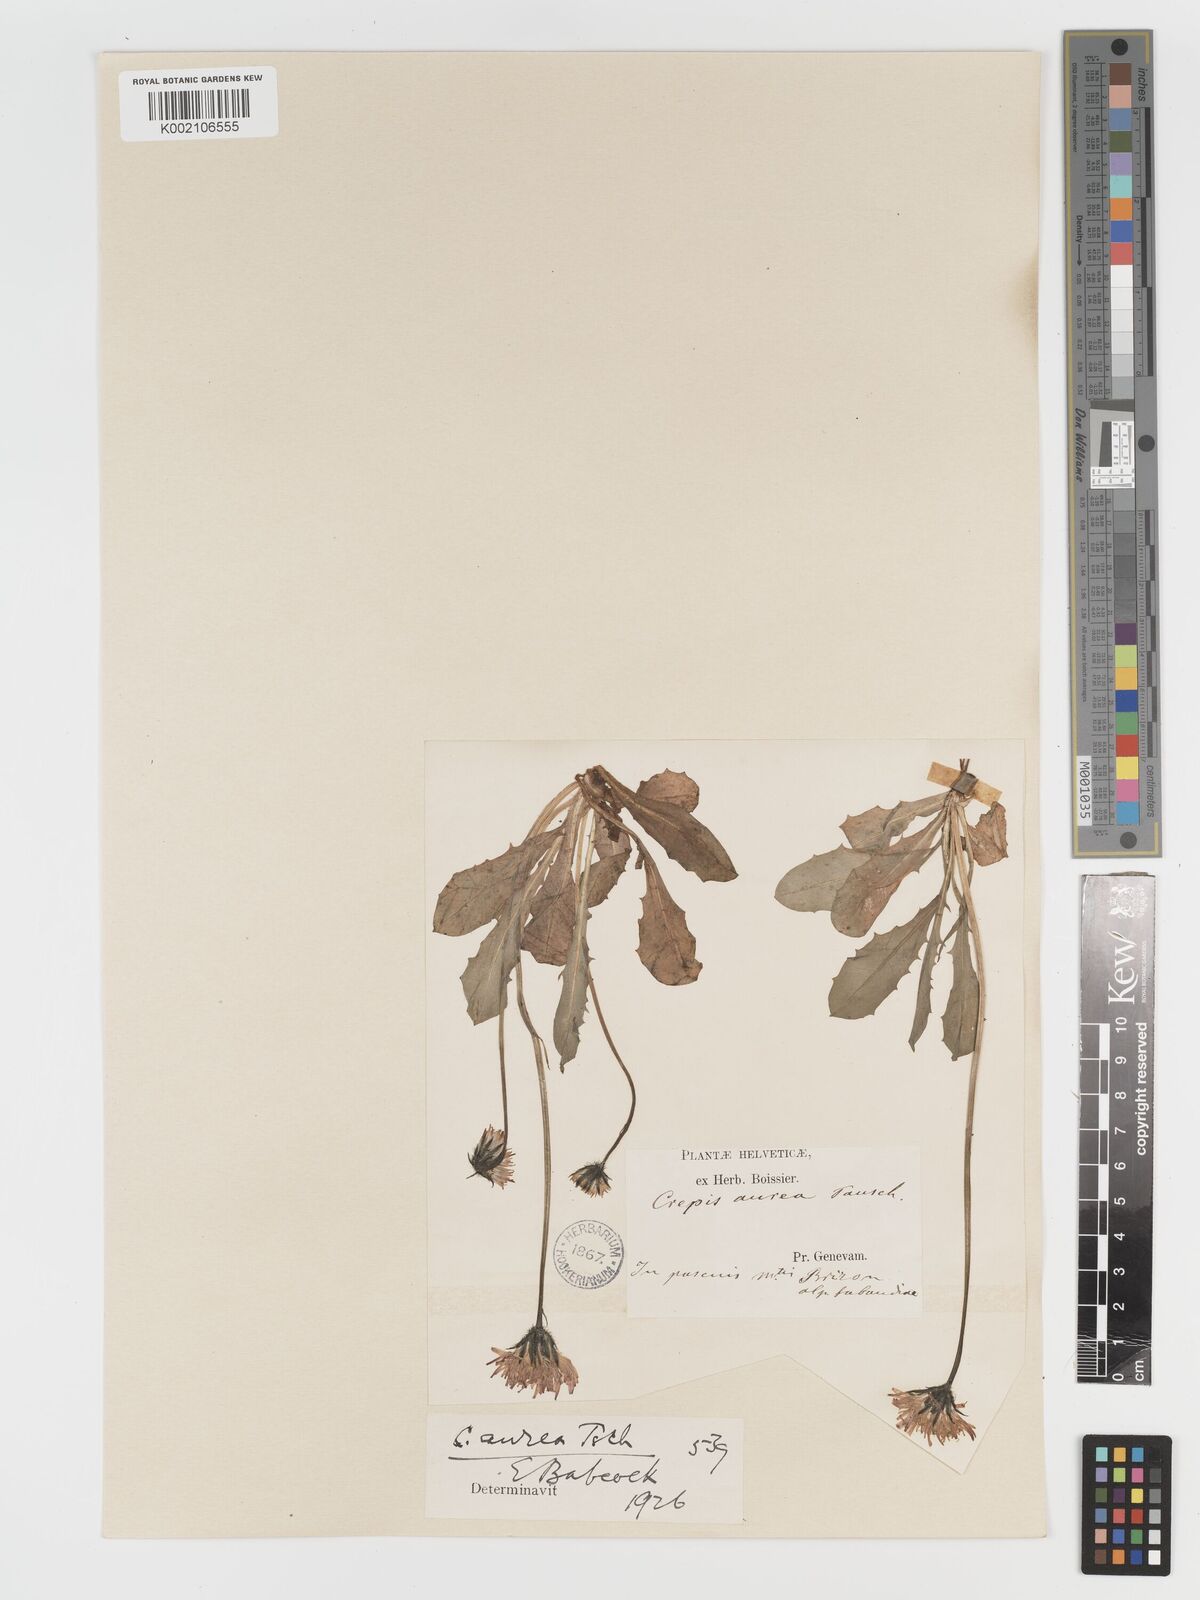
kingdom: Plantae
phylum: Tracheophyta
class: Magnoliopsida
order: Asterales
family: Asteraceae
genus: Crepis
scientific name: Crepis aurea
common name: Golden hawk's-beard
